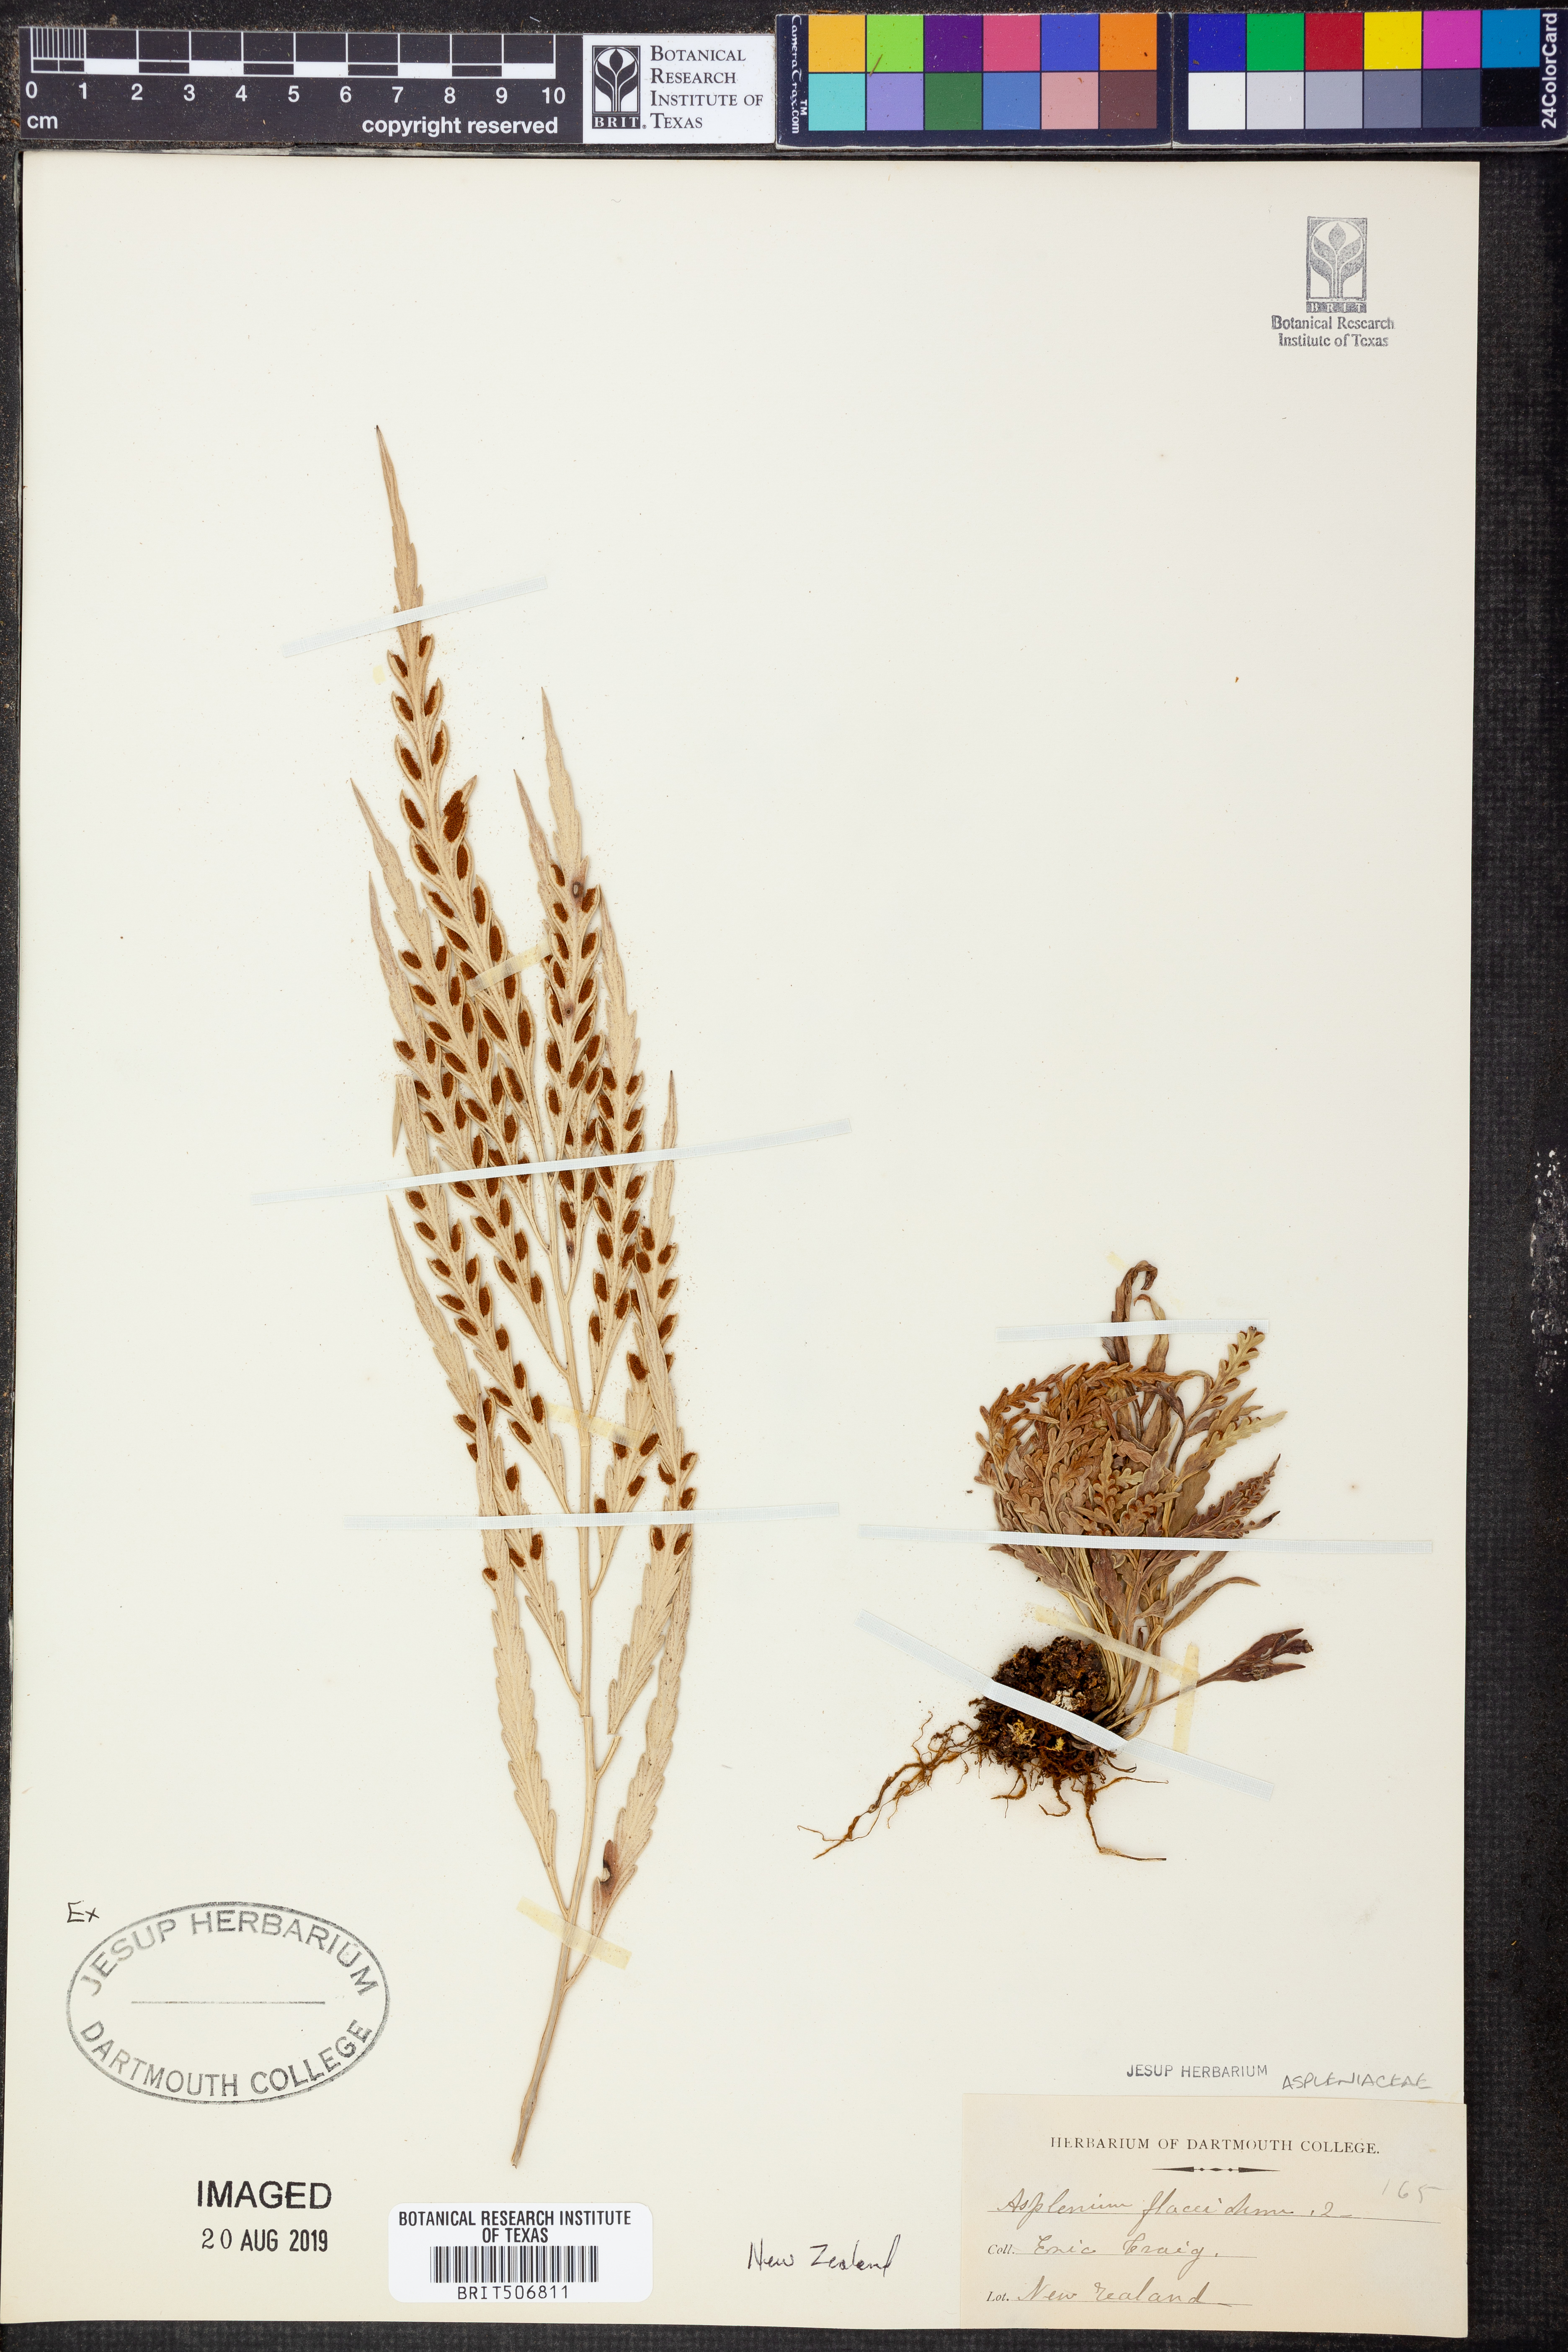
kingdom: Plantae
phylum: Tracheophyta
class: Polypodiopsida
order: Polypodiales
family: Aspleniaceae
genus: Asplenium
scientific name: Asplenium flaccidum
